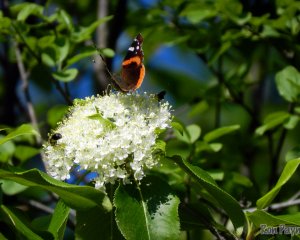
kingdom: Animalia
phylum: Arthropoda
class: Insecta
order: Lepidoptera
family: Nymphalidae
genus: Vanessa
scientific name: Vanessa atalanta
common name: Red Admiral
